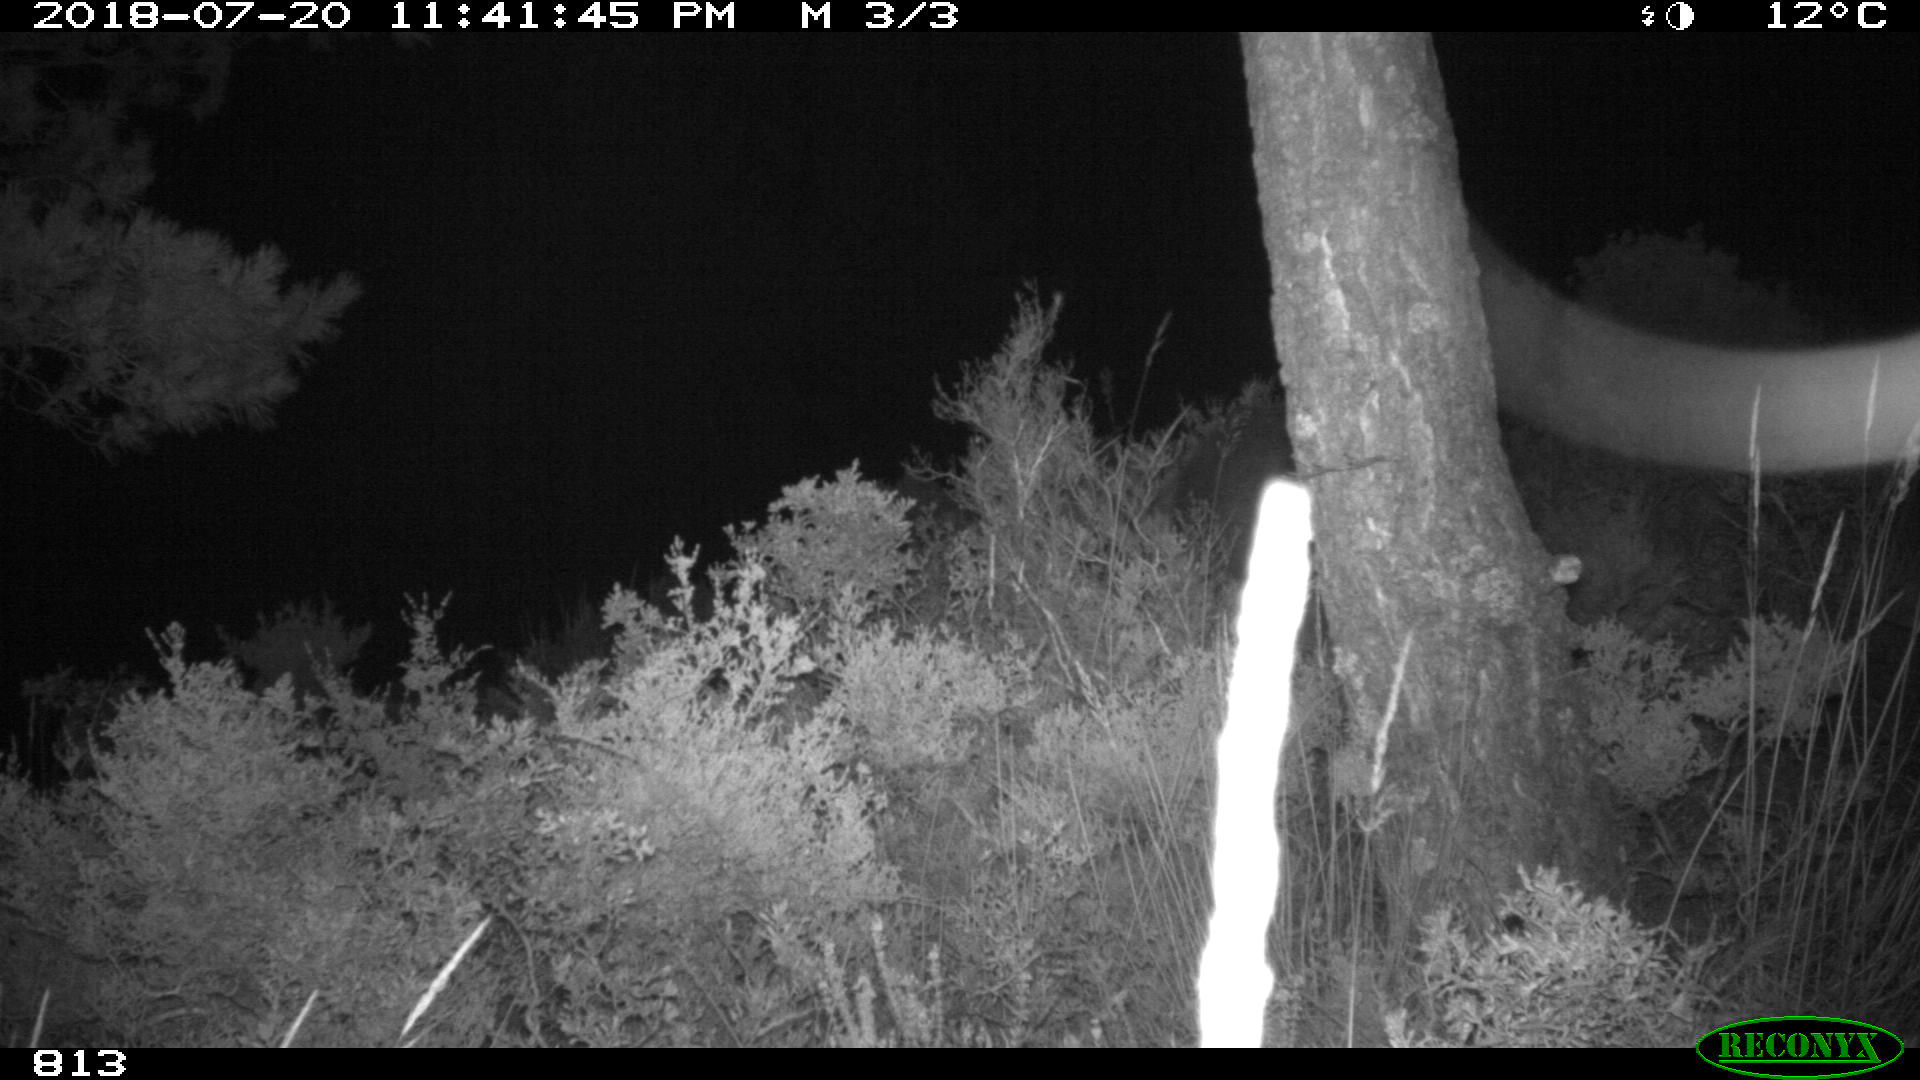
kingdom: Animalia
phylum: Chordata
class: Mammalia
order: Artiodactyla
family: Suidae
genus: Sus
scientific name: Sus scrofa
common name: Wild boar
